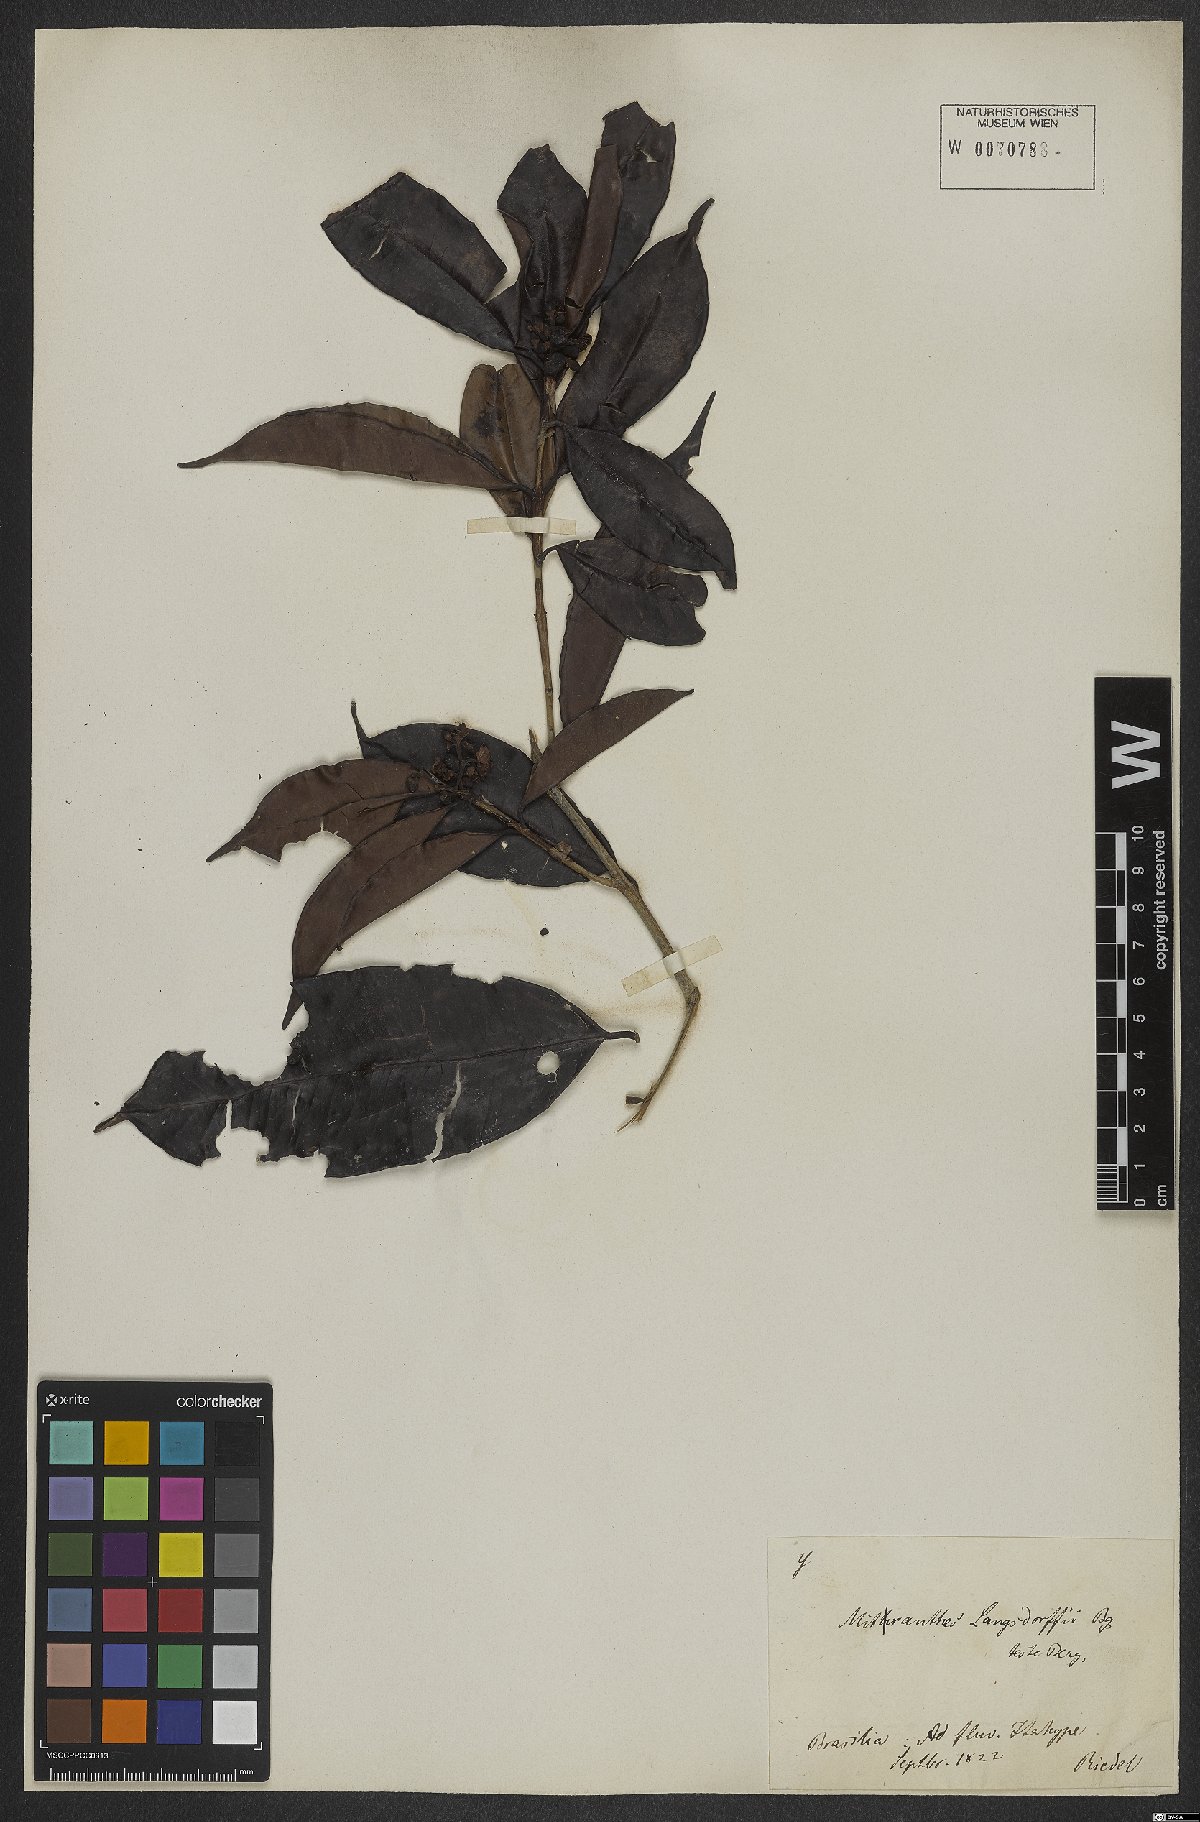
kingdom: Plantae
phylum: Tracheophyta
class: Magnoliopsida
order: Myrtales
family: Myrtaceae
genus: Neomitranthes
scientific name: Neomitranthes langsdorffii
